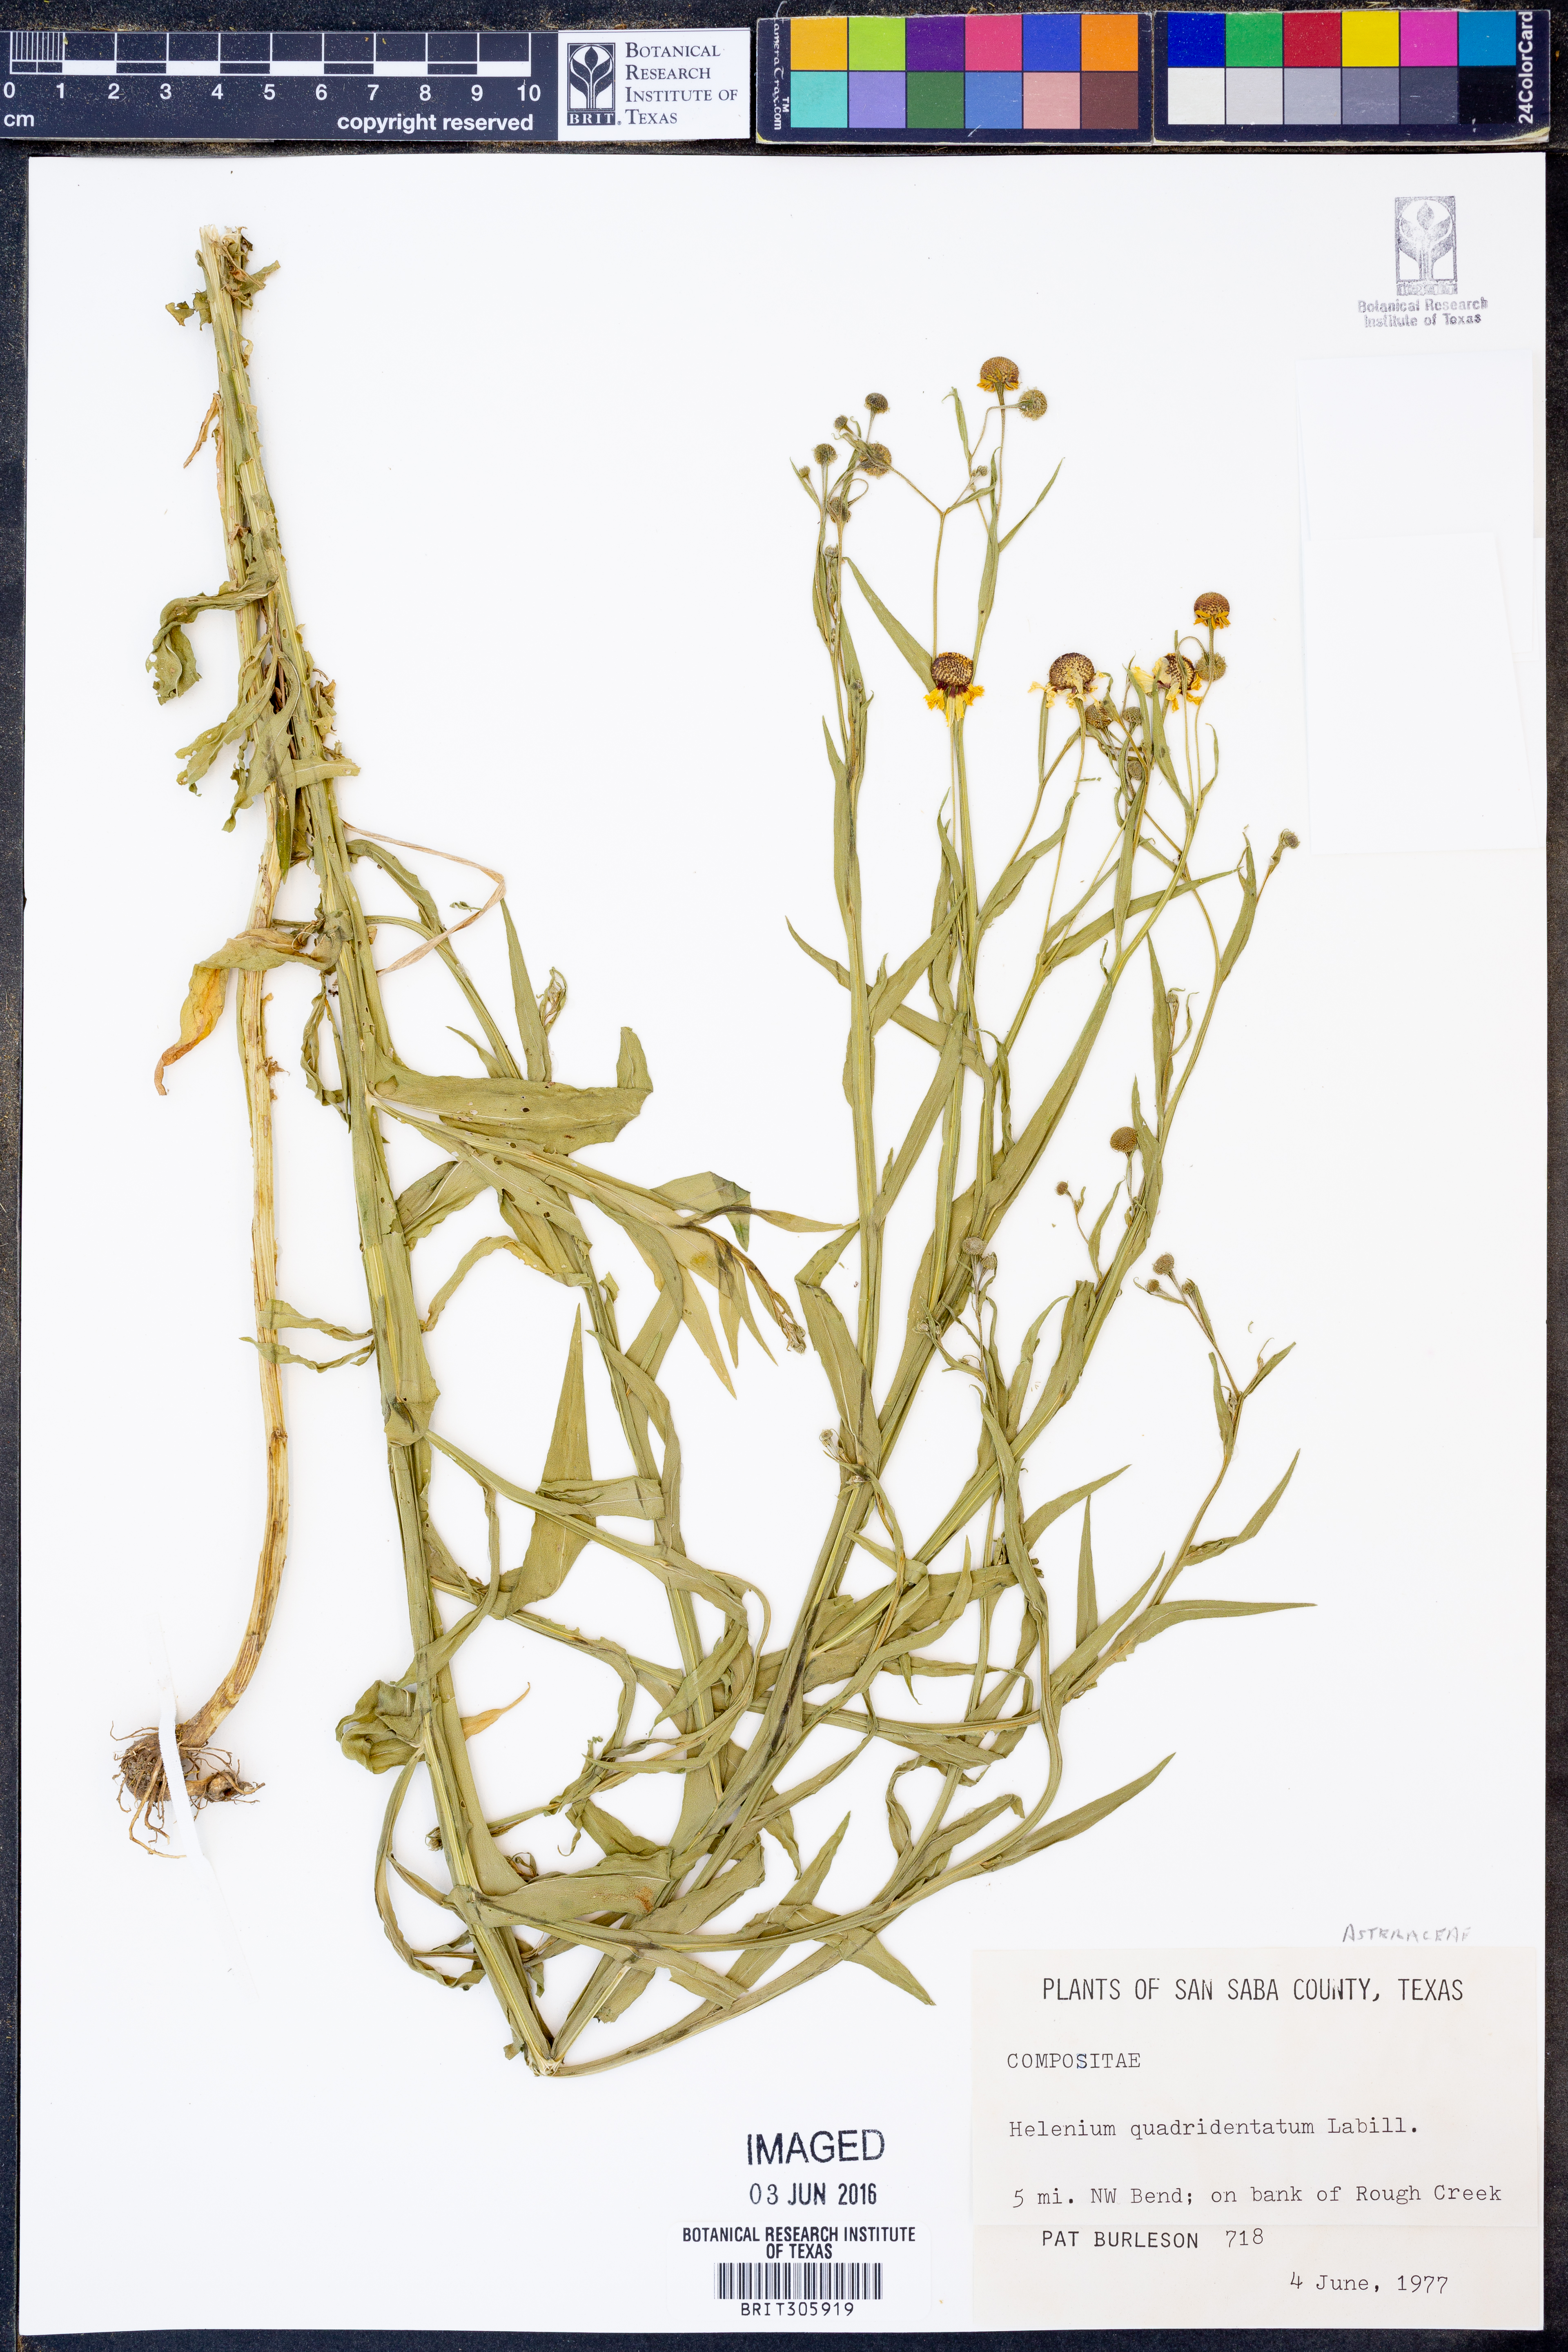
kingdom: Plantae
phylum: Tracheophyta
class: Magnoliopsida
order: Asterales
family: Asteraceae
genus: Helenium
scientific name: Helenium quadridentatum
